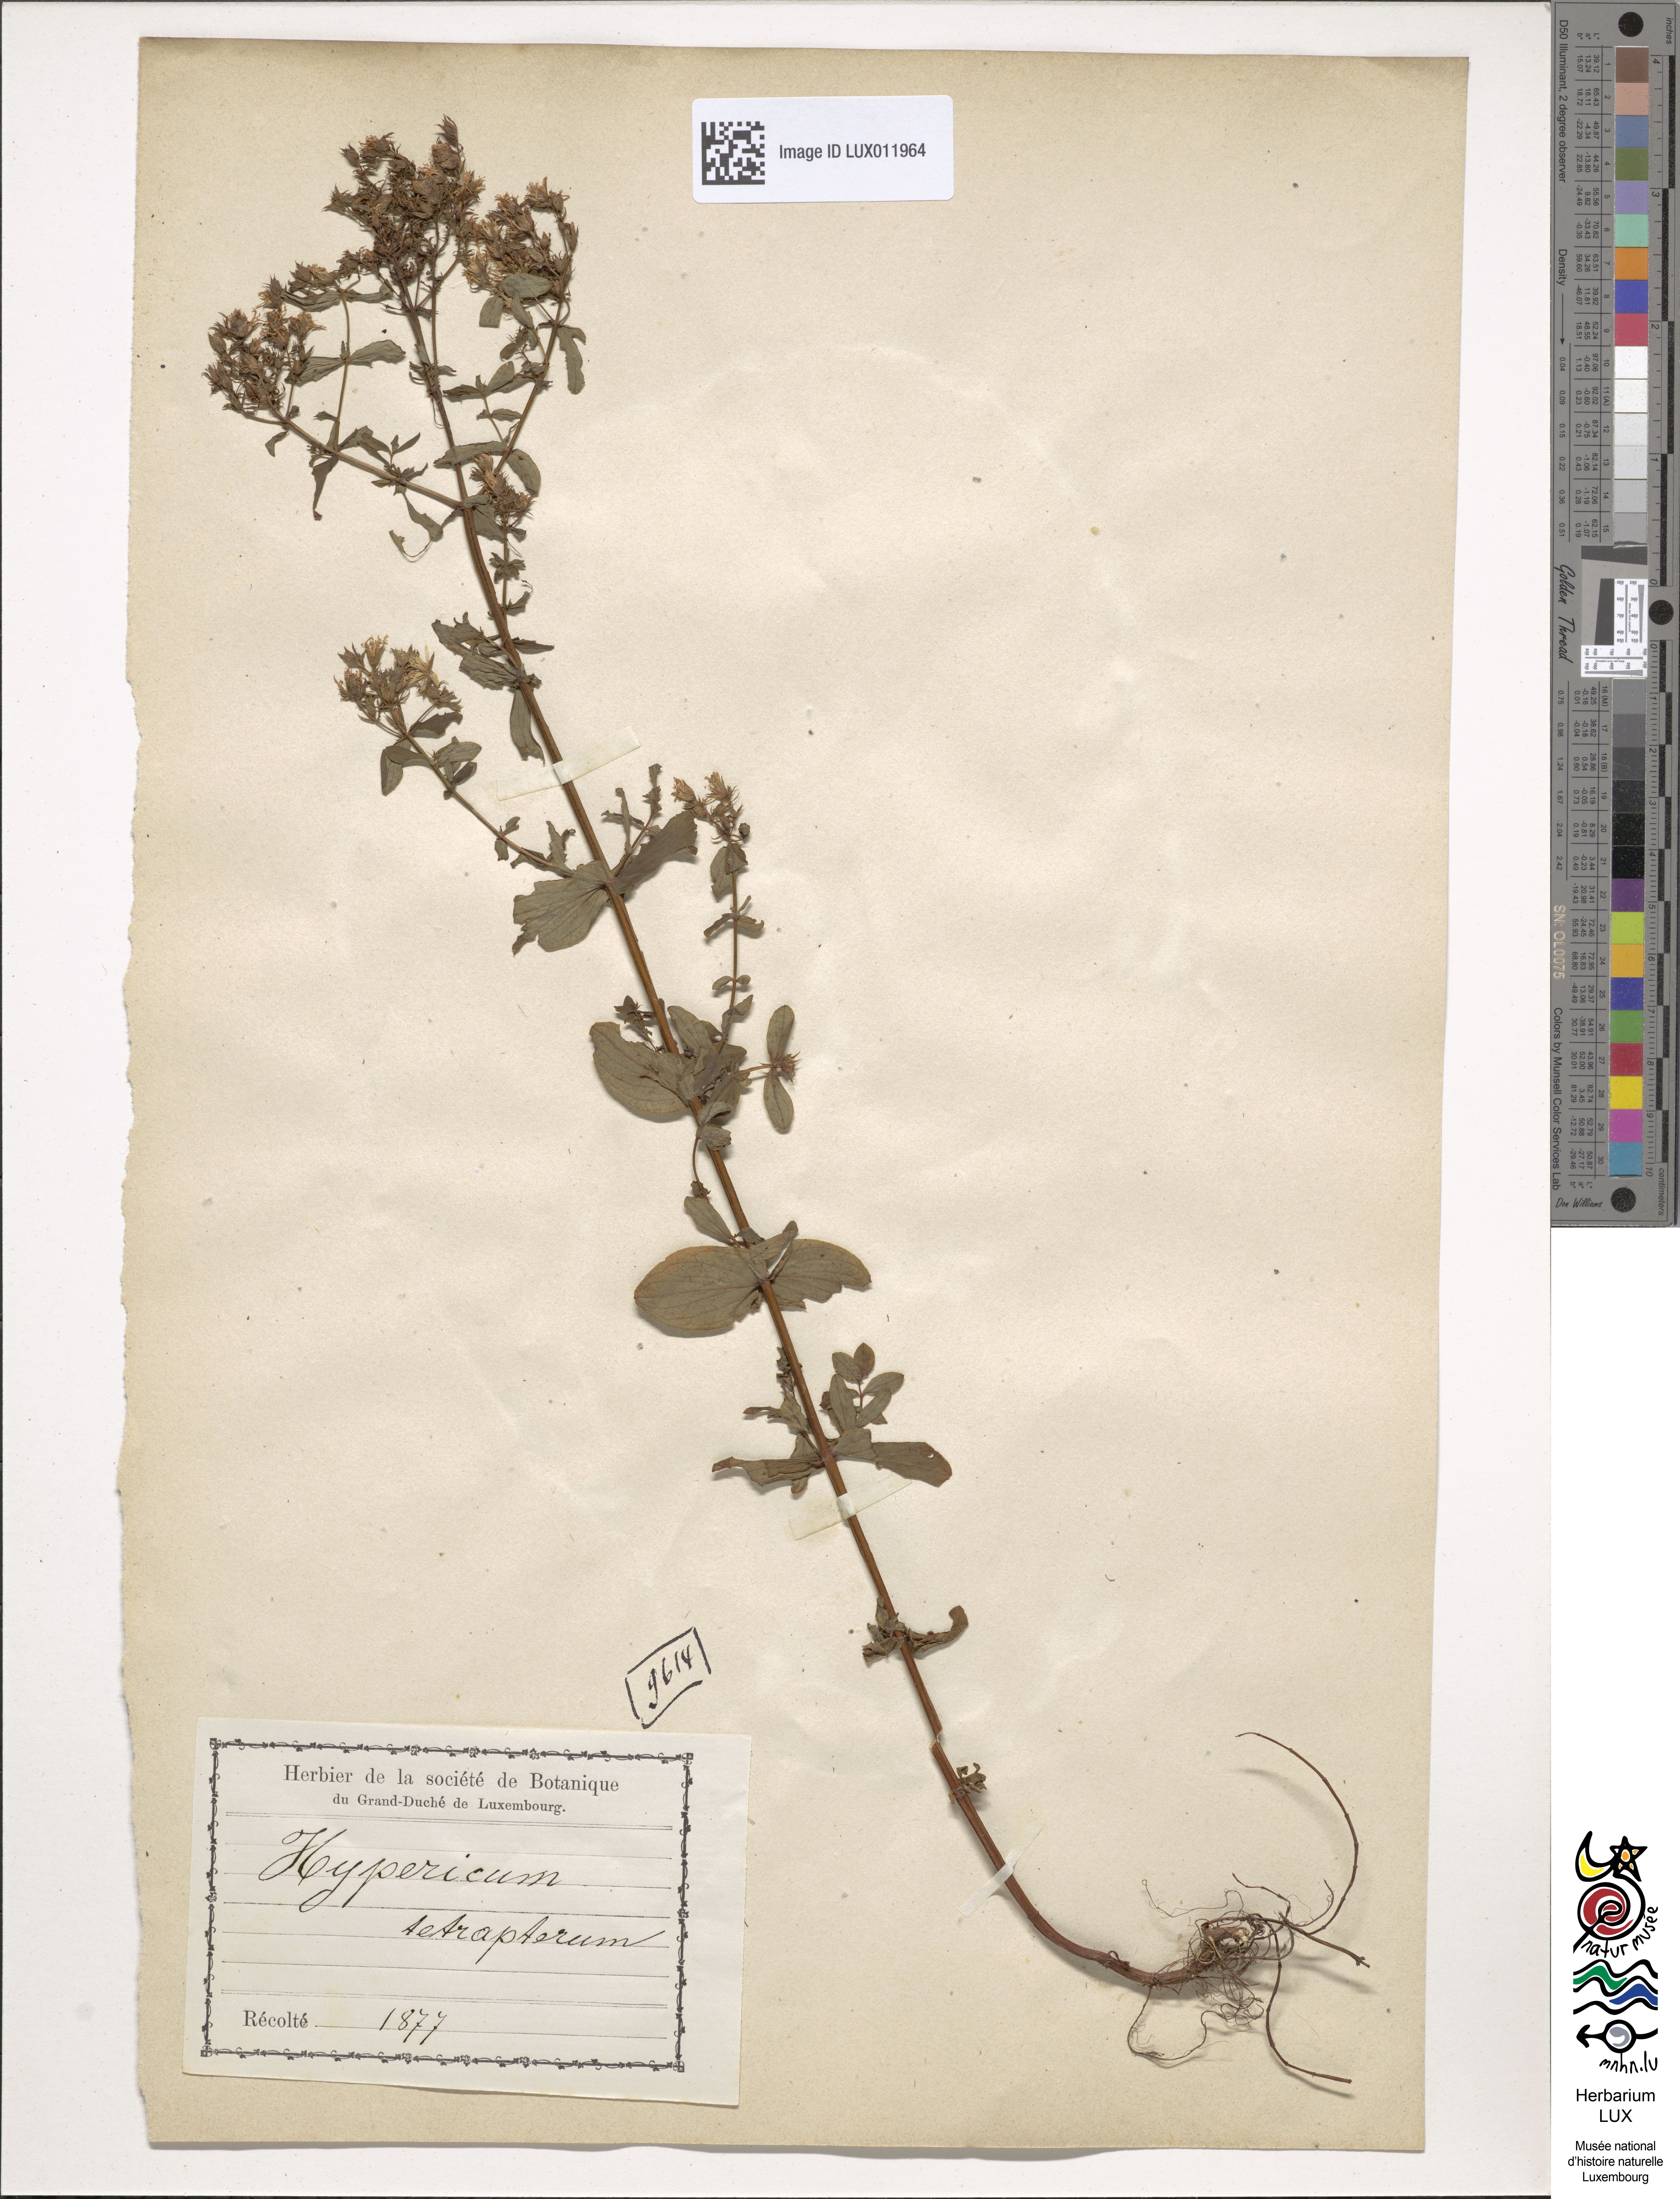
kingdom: Plantae
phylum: Tracheophyta
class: Magnoliopsida
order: Malpighiales
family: Hypericaceae
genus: Hypericum
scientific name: Hypericum tetrapterum
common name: Square-stalked st. john's-wort
